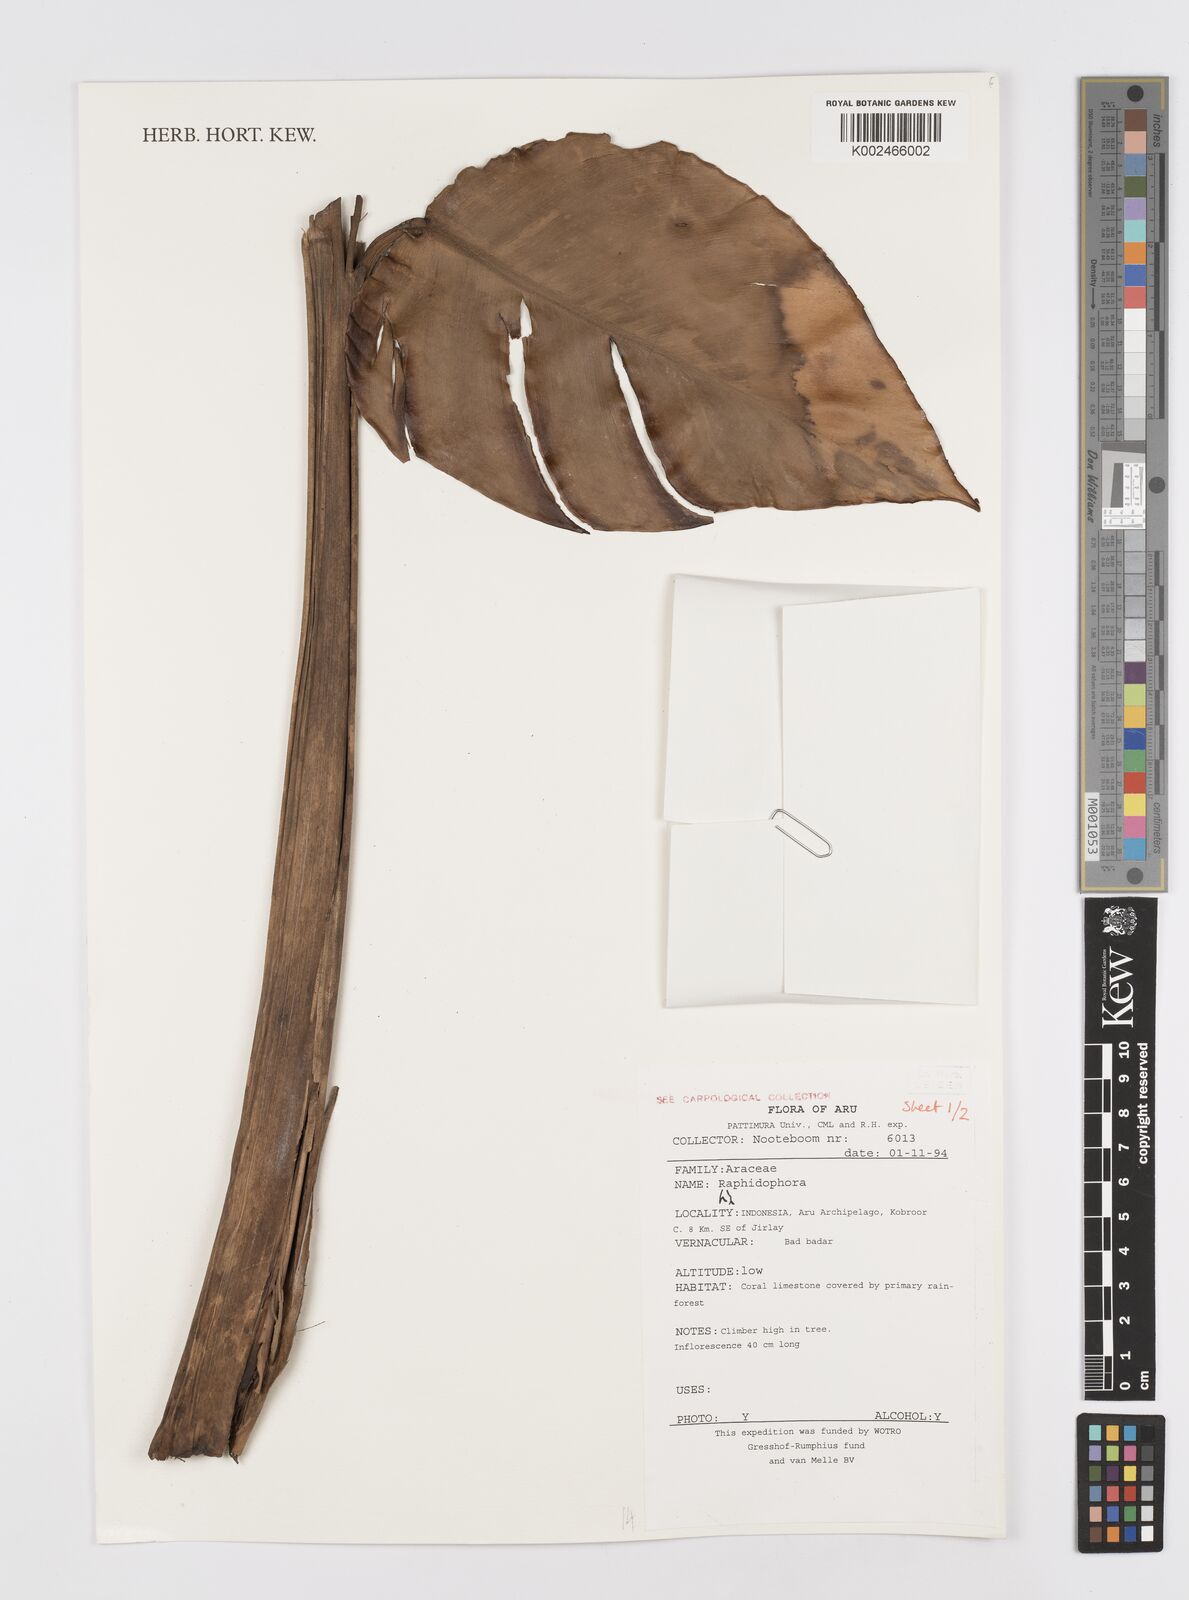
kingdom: Plantae
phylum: Tracheophyta
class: Liliopsida
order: Alismatales
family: Araceae
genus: Rhaphidophora
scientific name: Rhaphidophora
